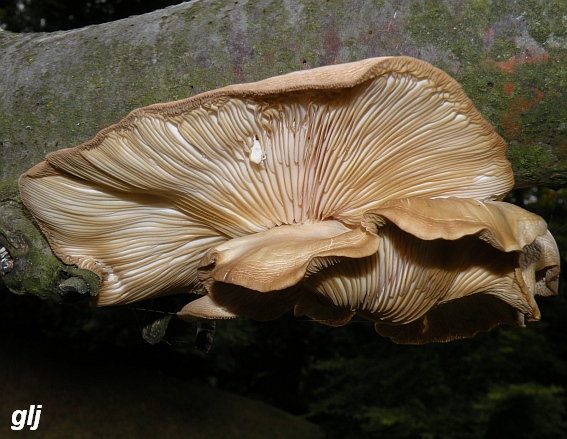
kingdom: Fungi
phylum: Basidiomycota
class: Agaricomycetes
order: Agaricales
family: Pleurotaceae
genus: Pleurotus
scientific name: Pleurotus pulmonarius
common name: sommer-østershat
